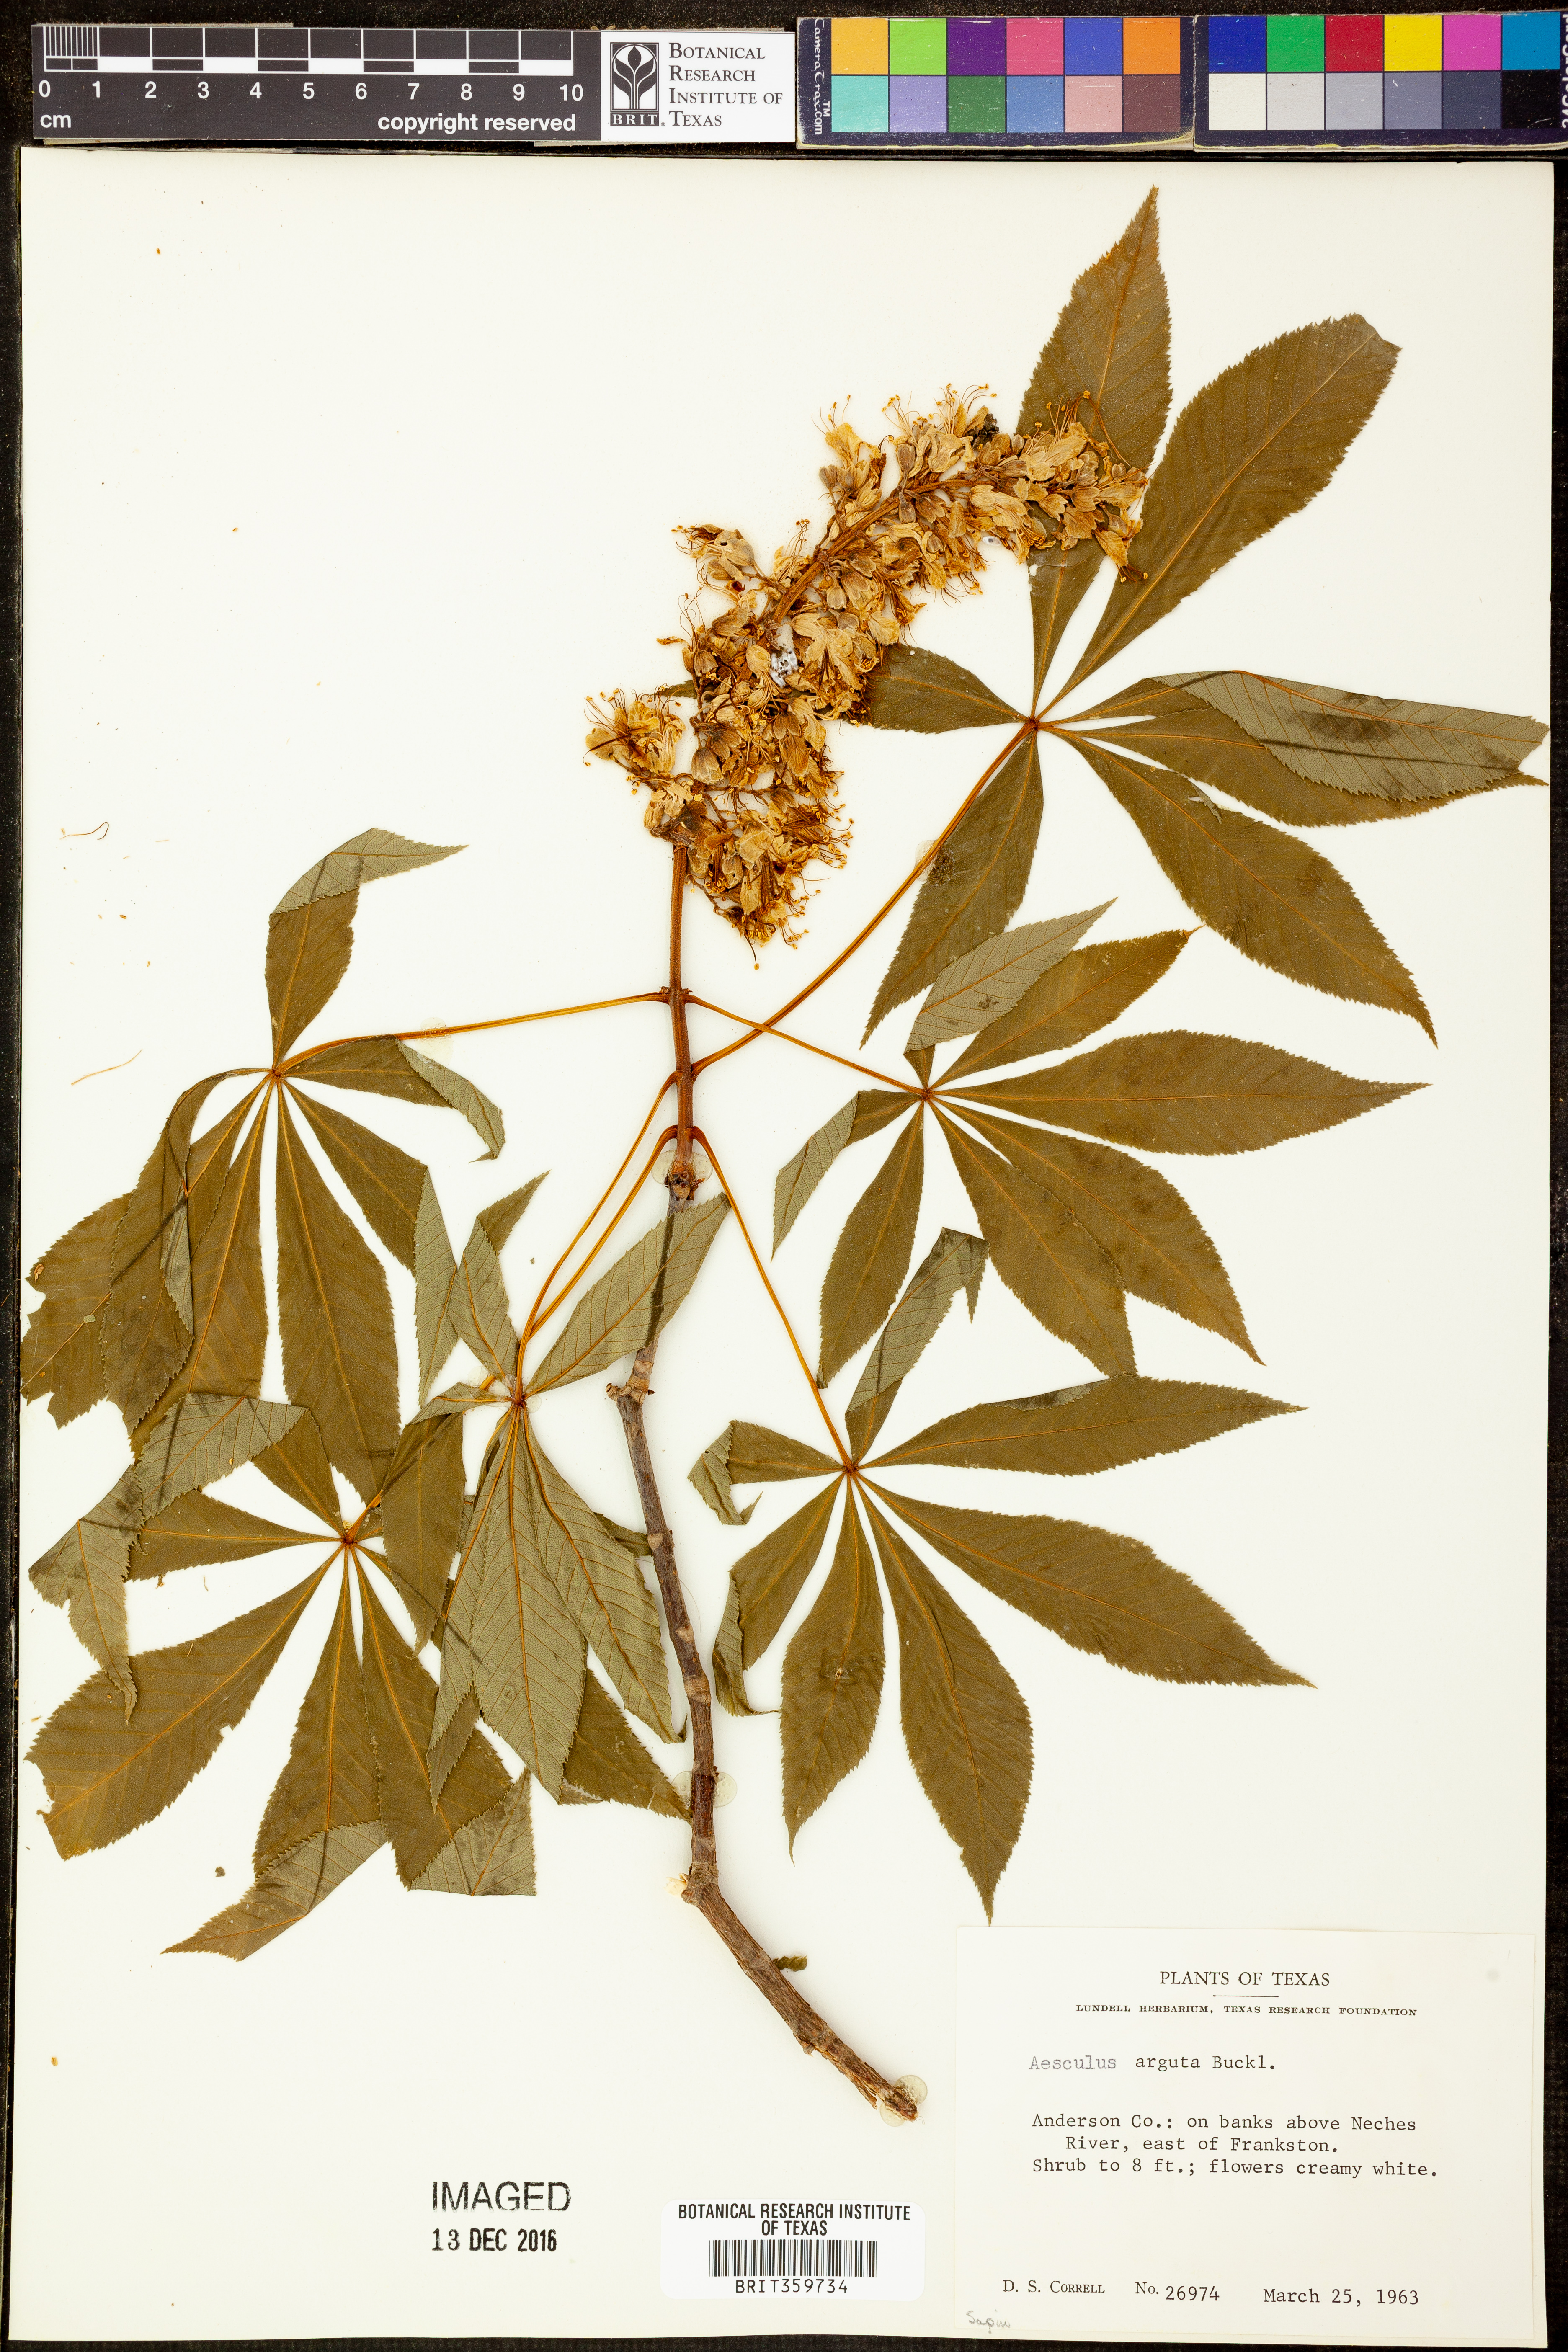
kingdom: Plantae
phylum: Tracheophyta
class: Magnoliopsida
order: Sapindales
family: Sapindaceae
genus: Aesculus
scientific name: Aesculus glabra
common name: Ohio buckeye
